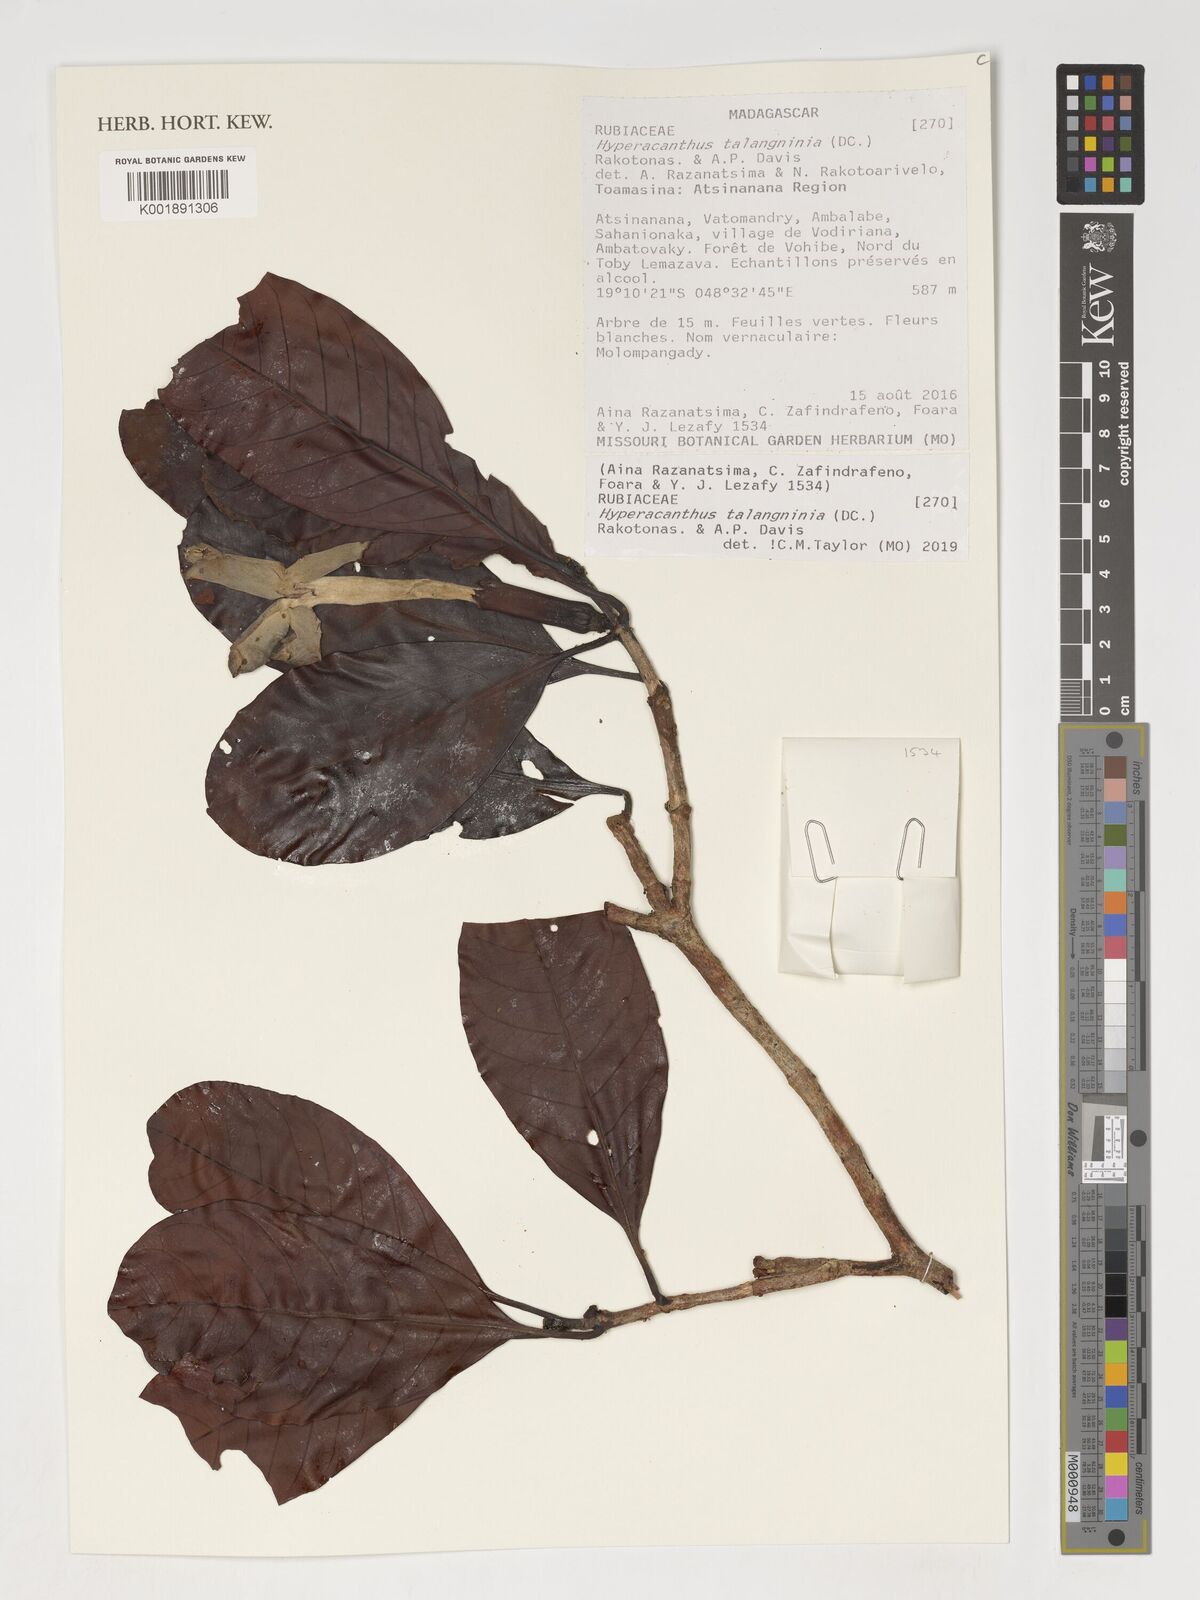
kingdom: Plantae
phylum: Tracheophyta
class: Magnoliopsida
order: Gentianales
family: Rubiaceae
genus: Hyperacanthus
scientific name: Hyperacanthus talangninia
